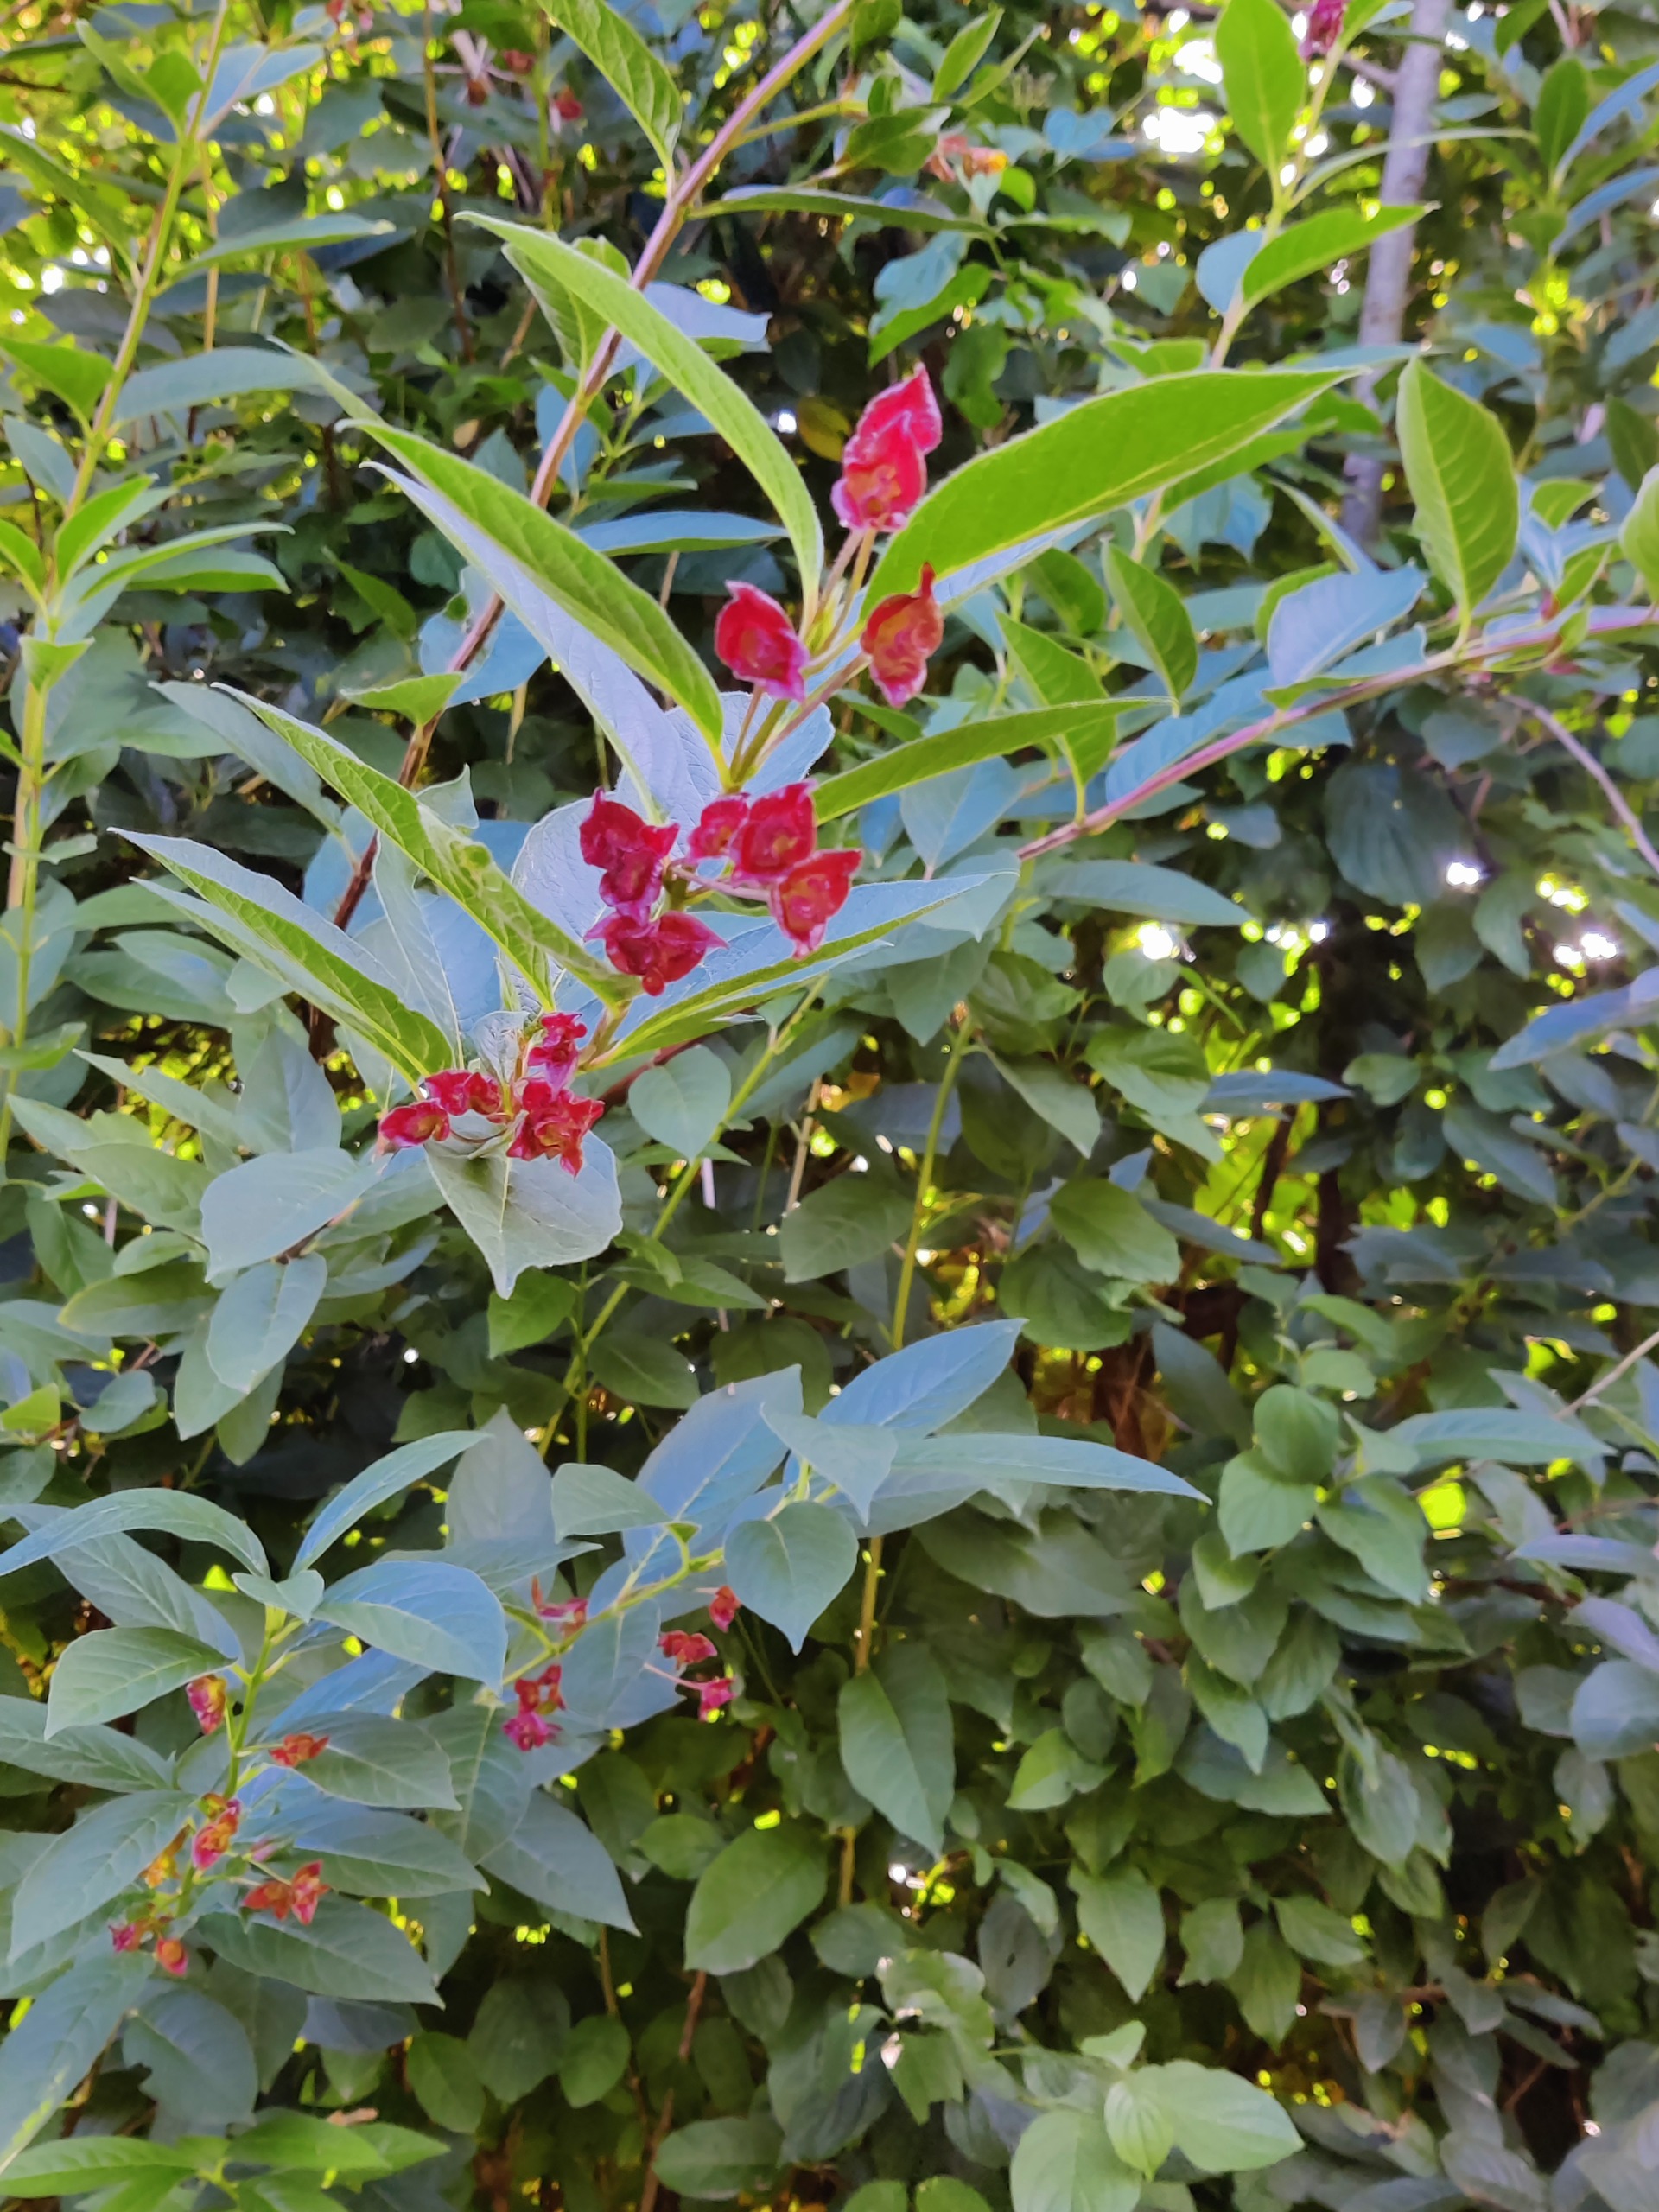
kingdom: Plantae
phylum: Tracheophyta
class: Magnoliopsida
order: Dipsacales
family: Caprifoliaceae
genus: Lonicera
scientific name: Lonicera involucrata
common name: Californisk gedeblad
